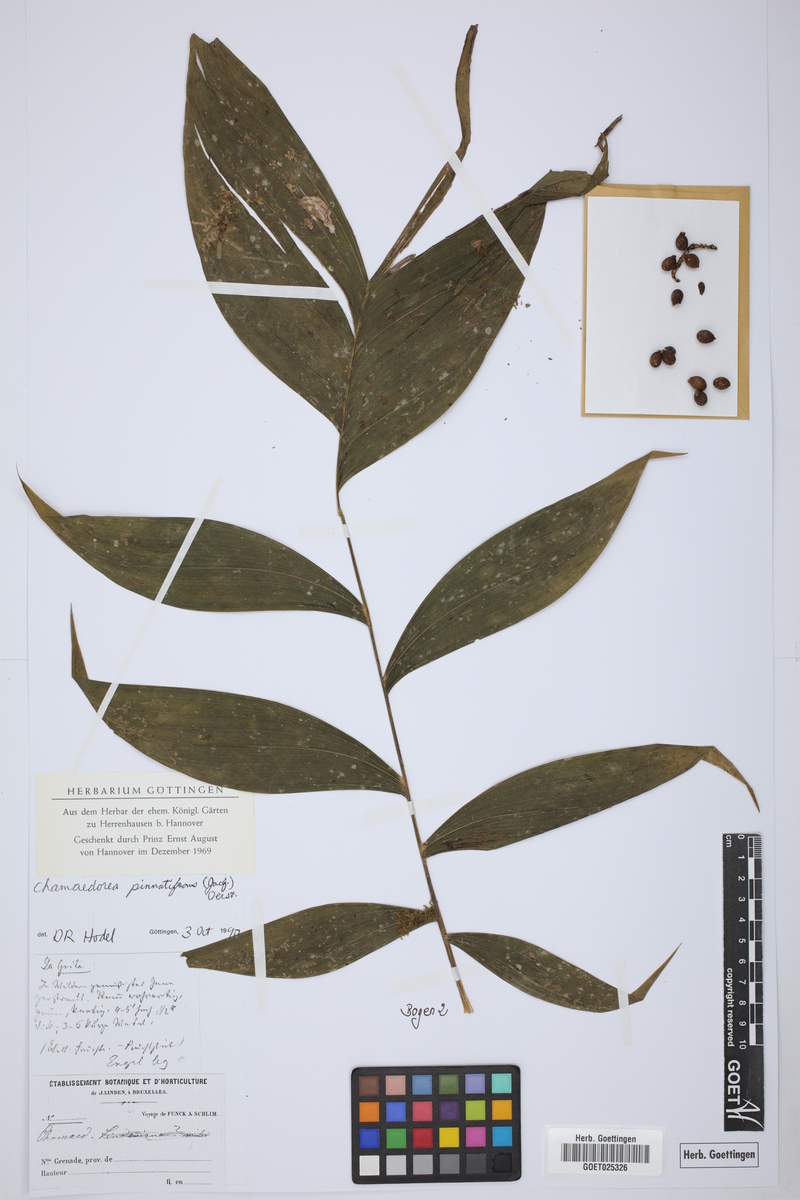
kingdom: Plantae
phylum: Tracheophyta
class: Liliopsida
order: Arecales
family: Arecaceae
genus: Chamaedorea
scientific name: Chamaedorea pinnatifrons
